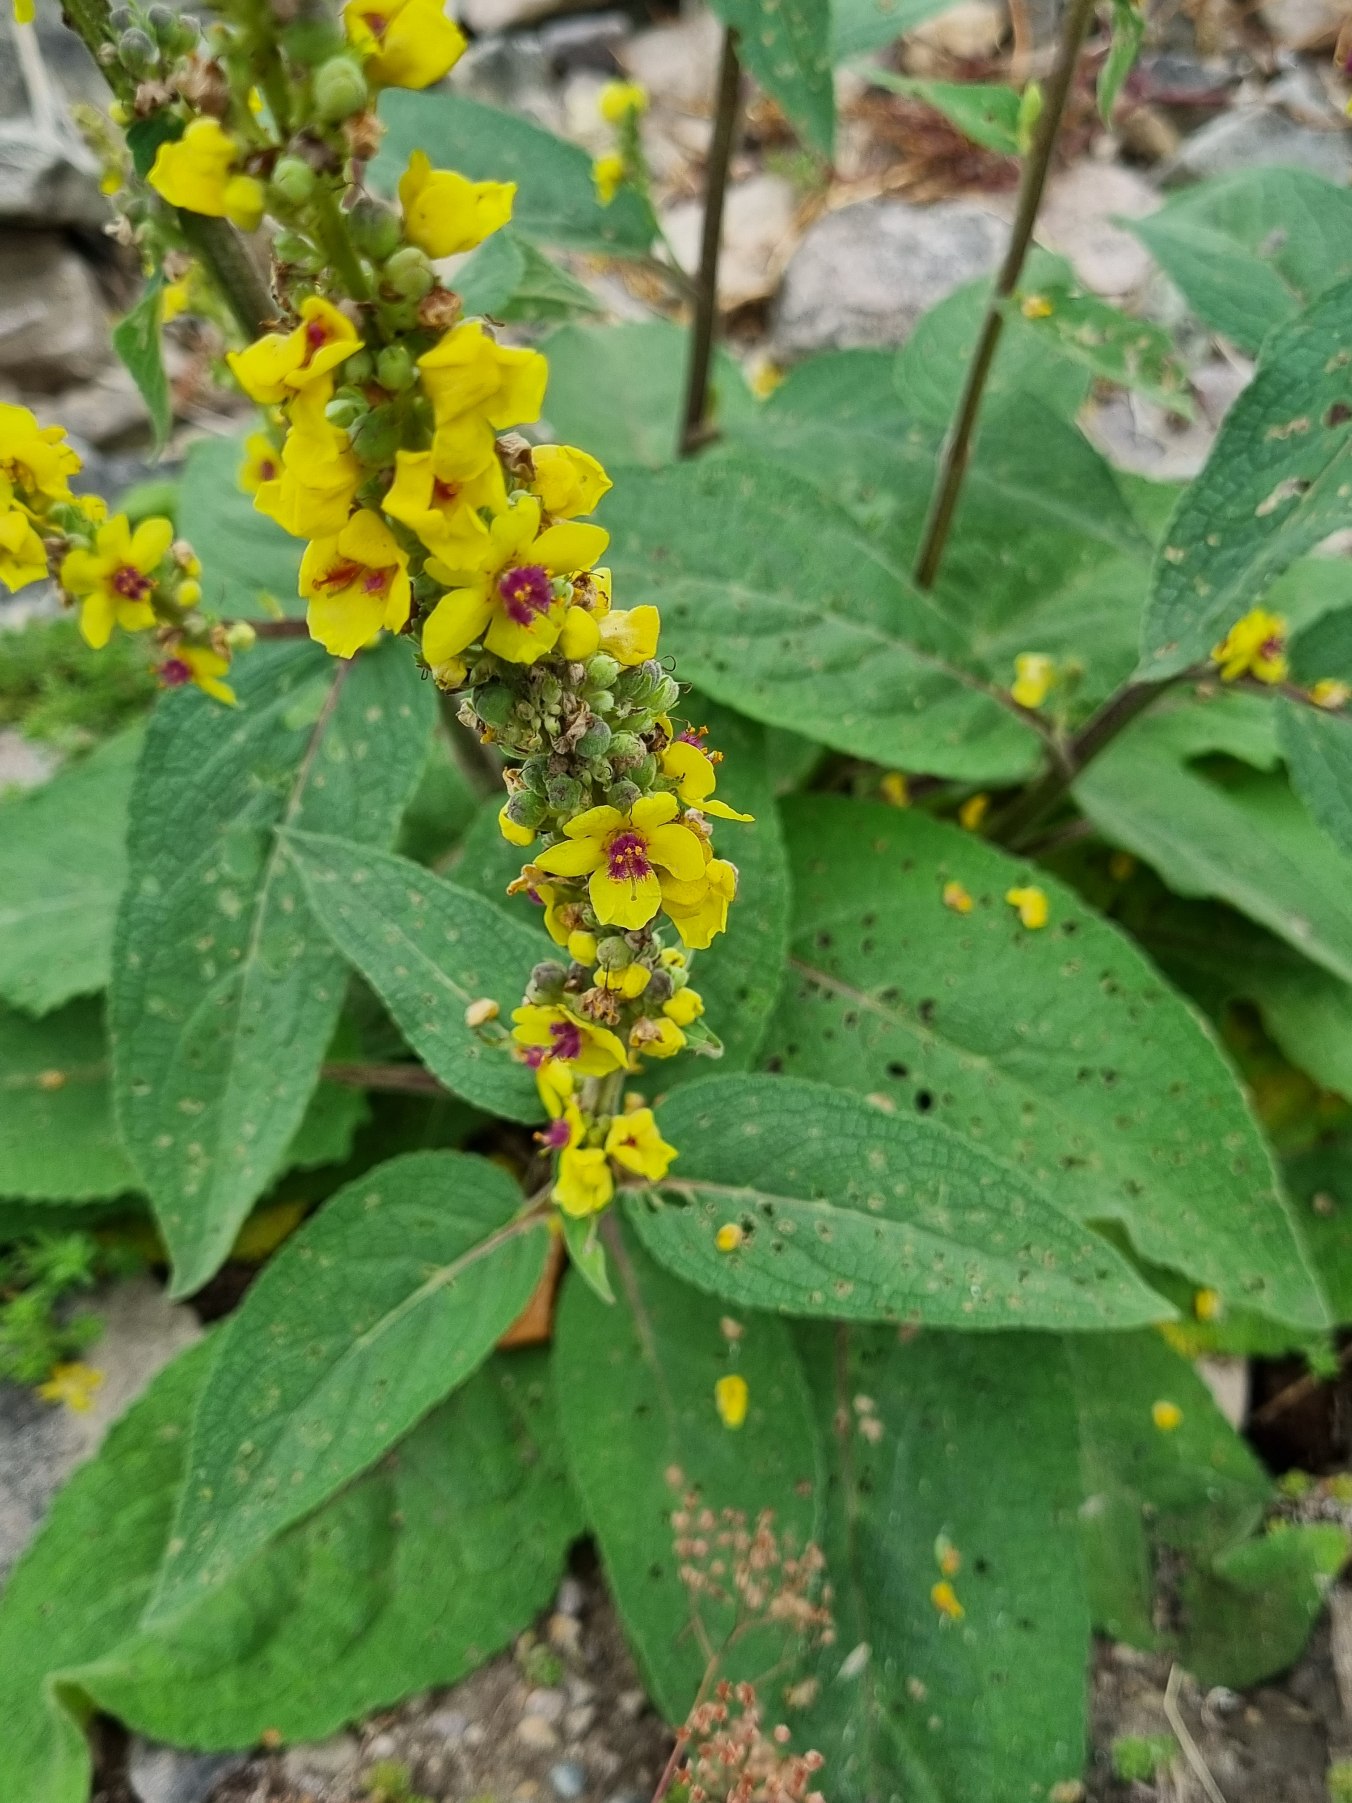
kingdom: Plantae
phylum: Tracheophyta
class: Magnoliopsida
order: Lamiales
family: Scrophulariaceae
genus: Verbascum
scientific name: Verbascum nigrum
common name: Mørk kongelys
